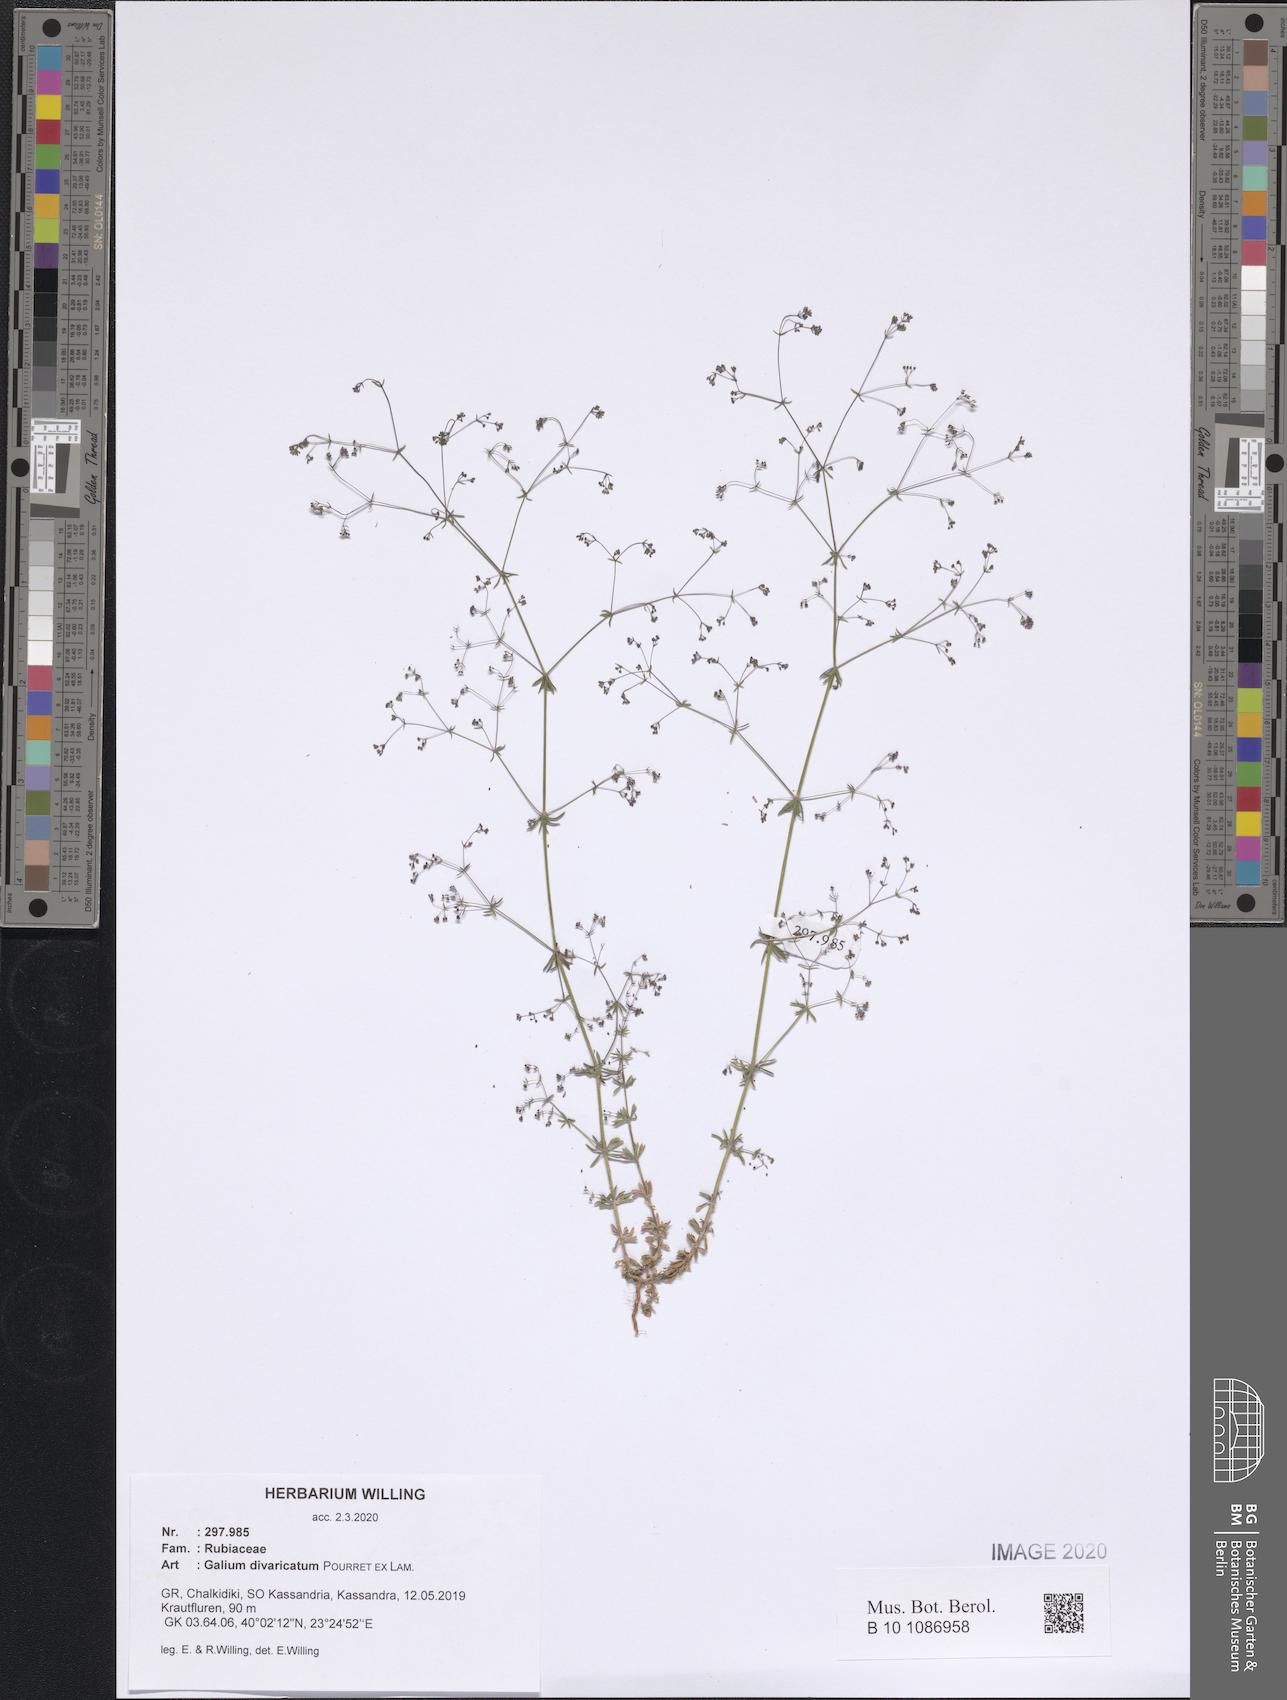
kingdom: Plantae
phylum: Tracheophyta
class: Magnoliopsida
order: Gentianales
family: Rubiaceae
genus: Galium
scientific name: Galium divaricatum
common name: Lamarck's bedstraw
